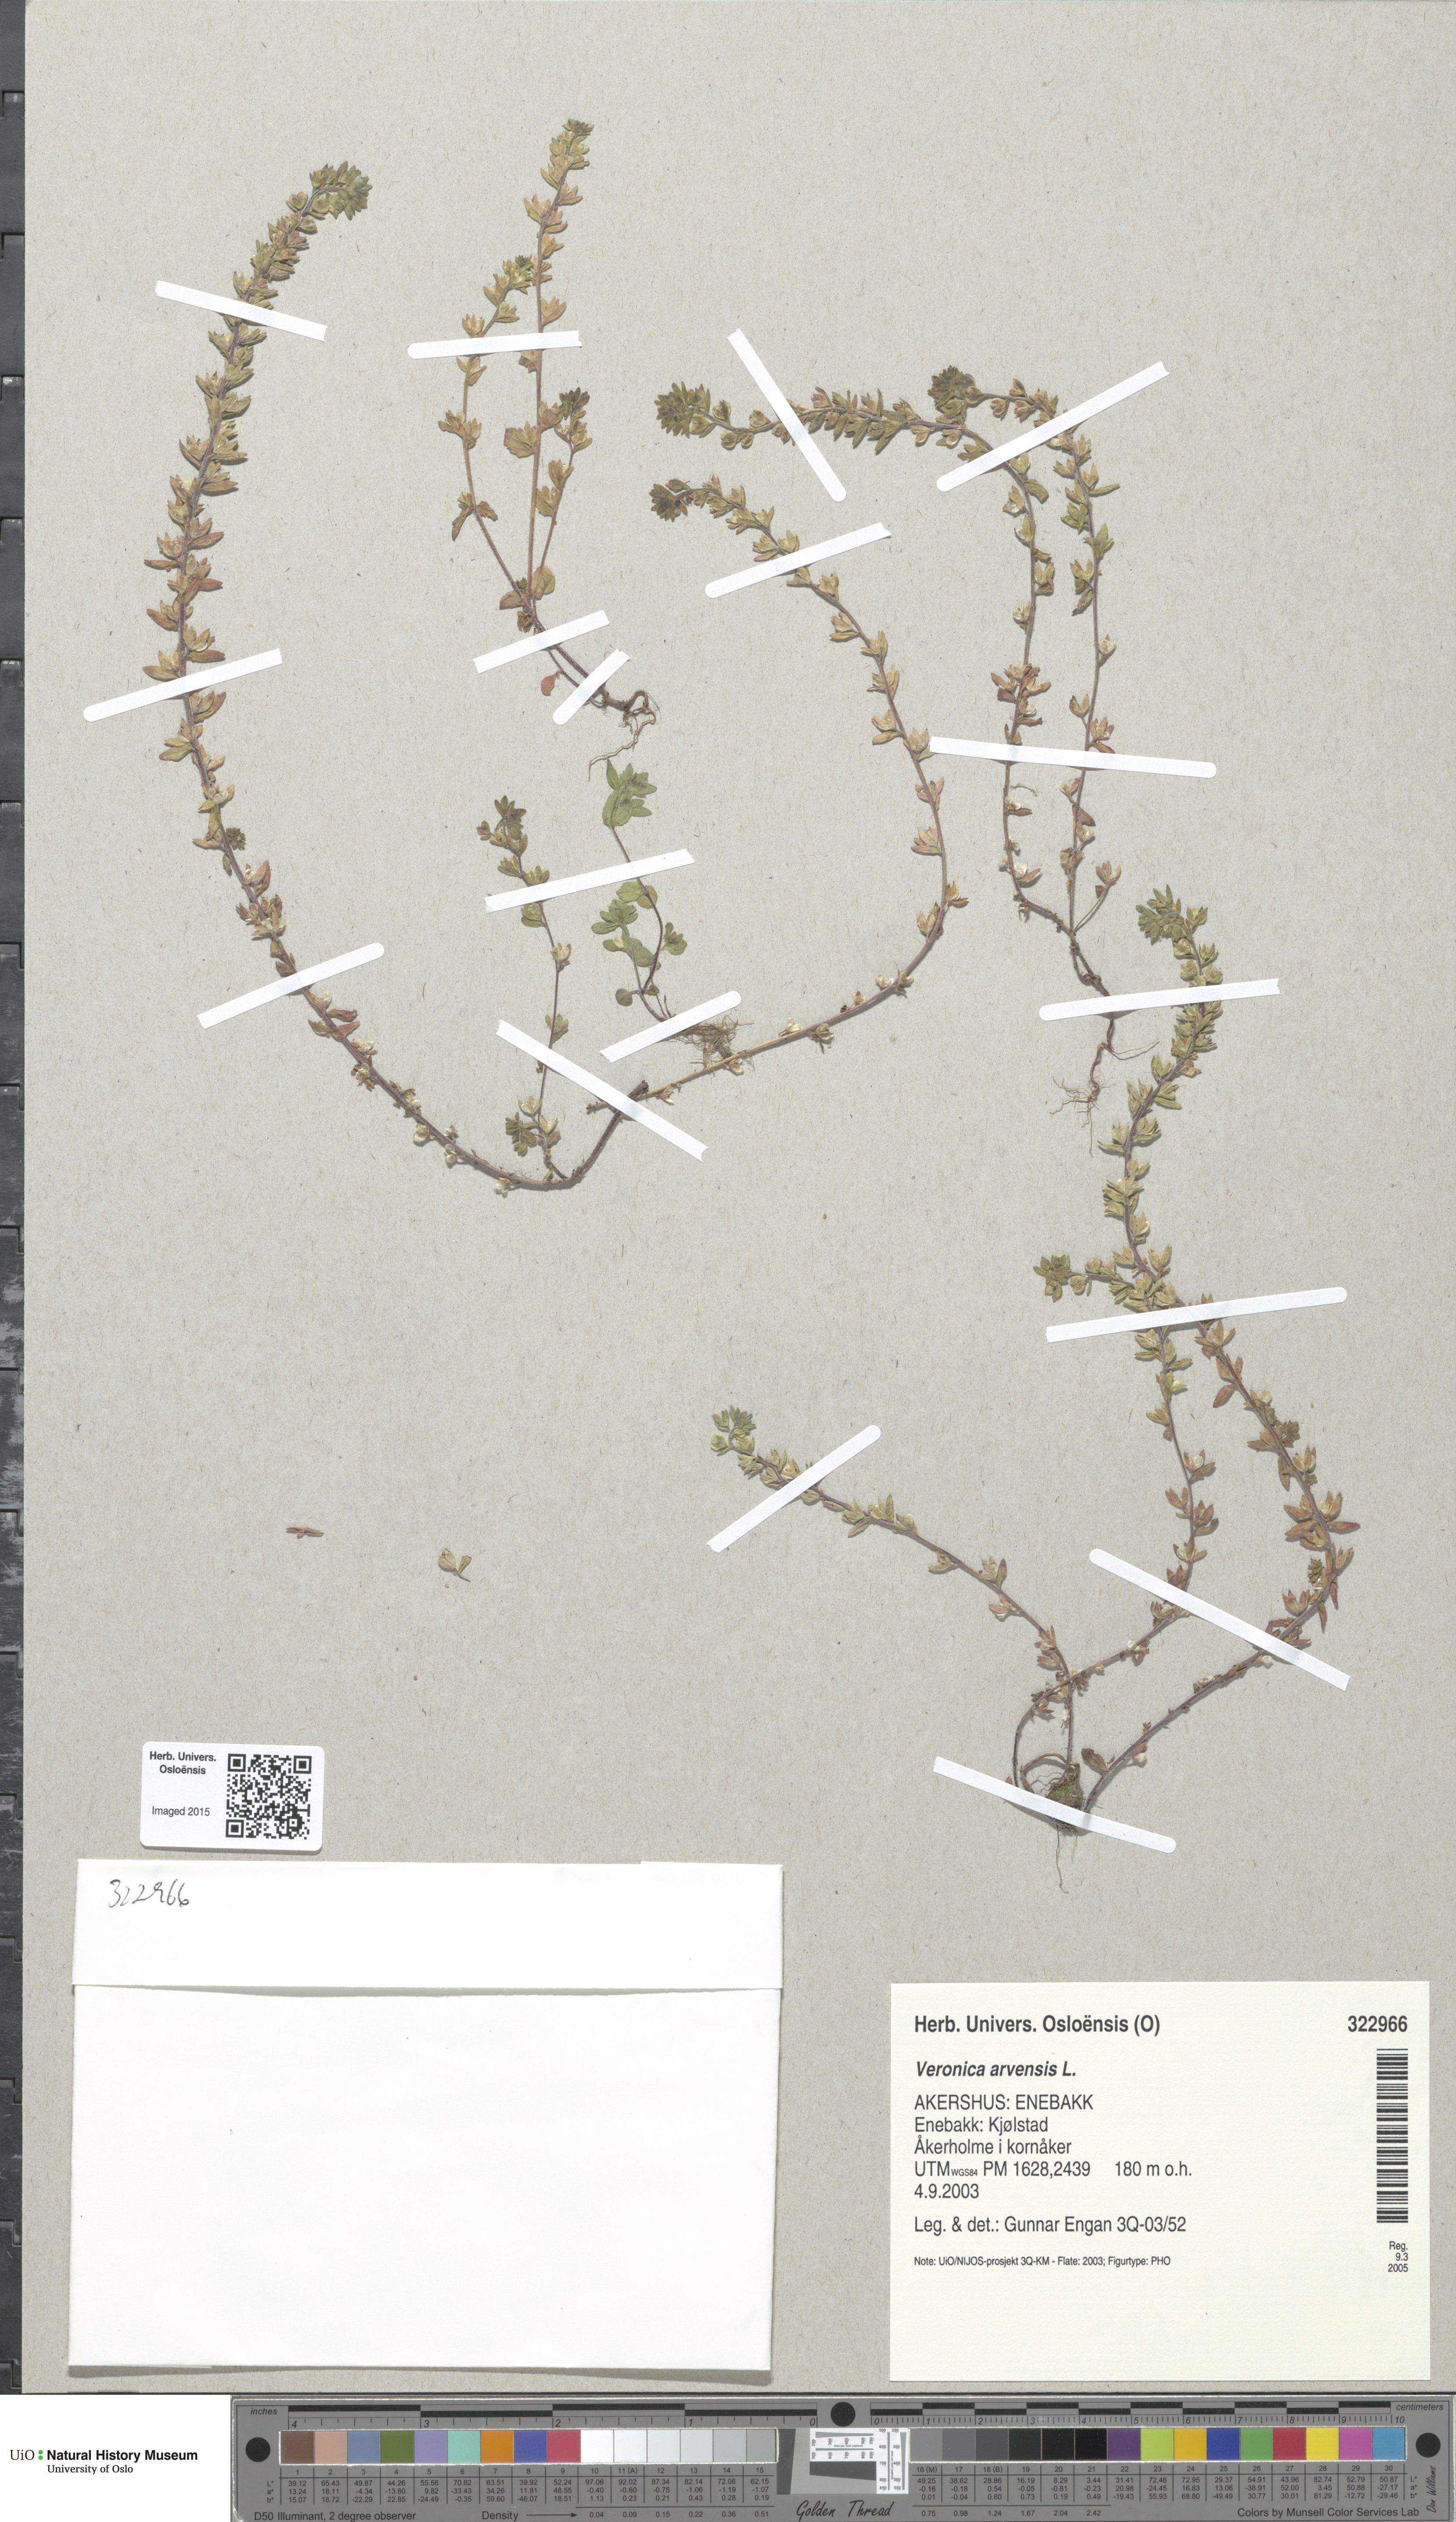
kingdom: Plantae
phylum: Tracheophyta
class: Magnoliopsida
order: Lamiales
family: Plantaginaceae
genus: Veronica
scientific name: Veronica arvensis
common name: Corn speedwell
